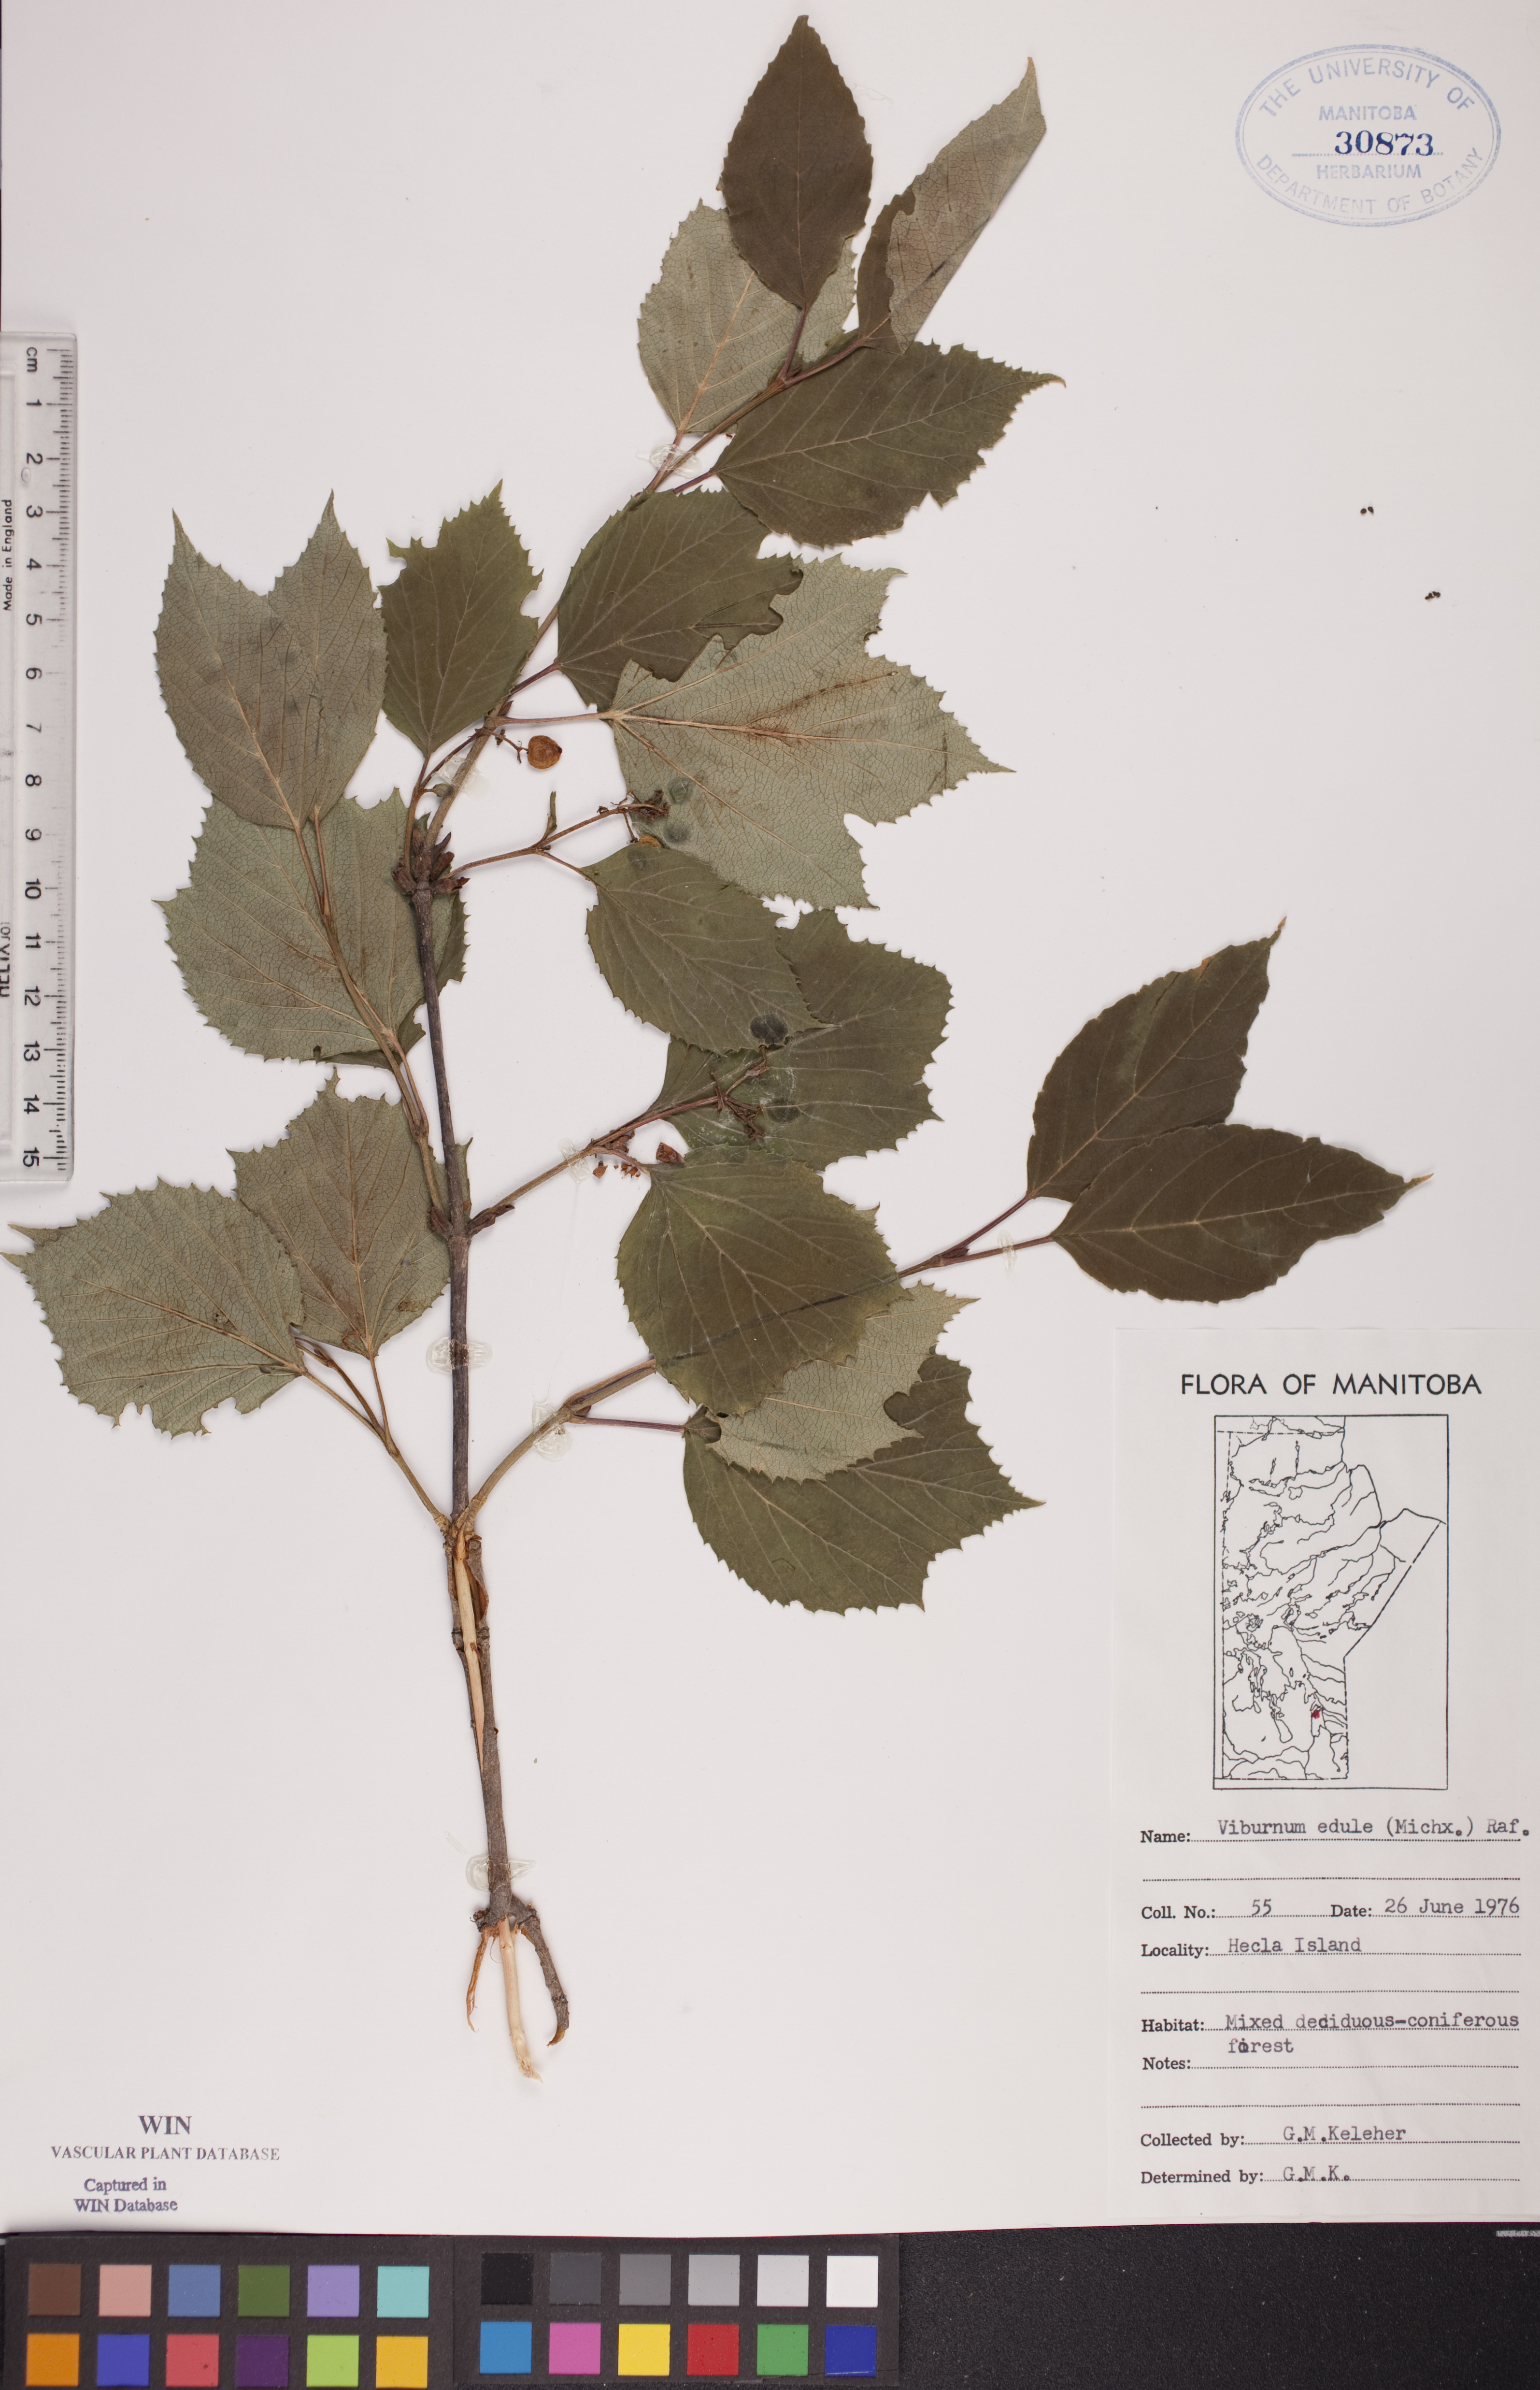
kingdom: Plantae
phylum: Tracheophyta
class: Magnoliopsida
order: Dipsacales
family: Viburnaceae
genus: Viburnum
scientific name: Viburnum edule
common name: Mooseberry
